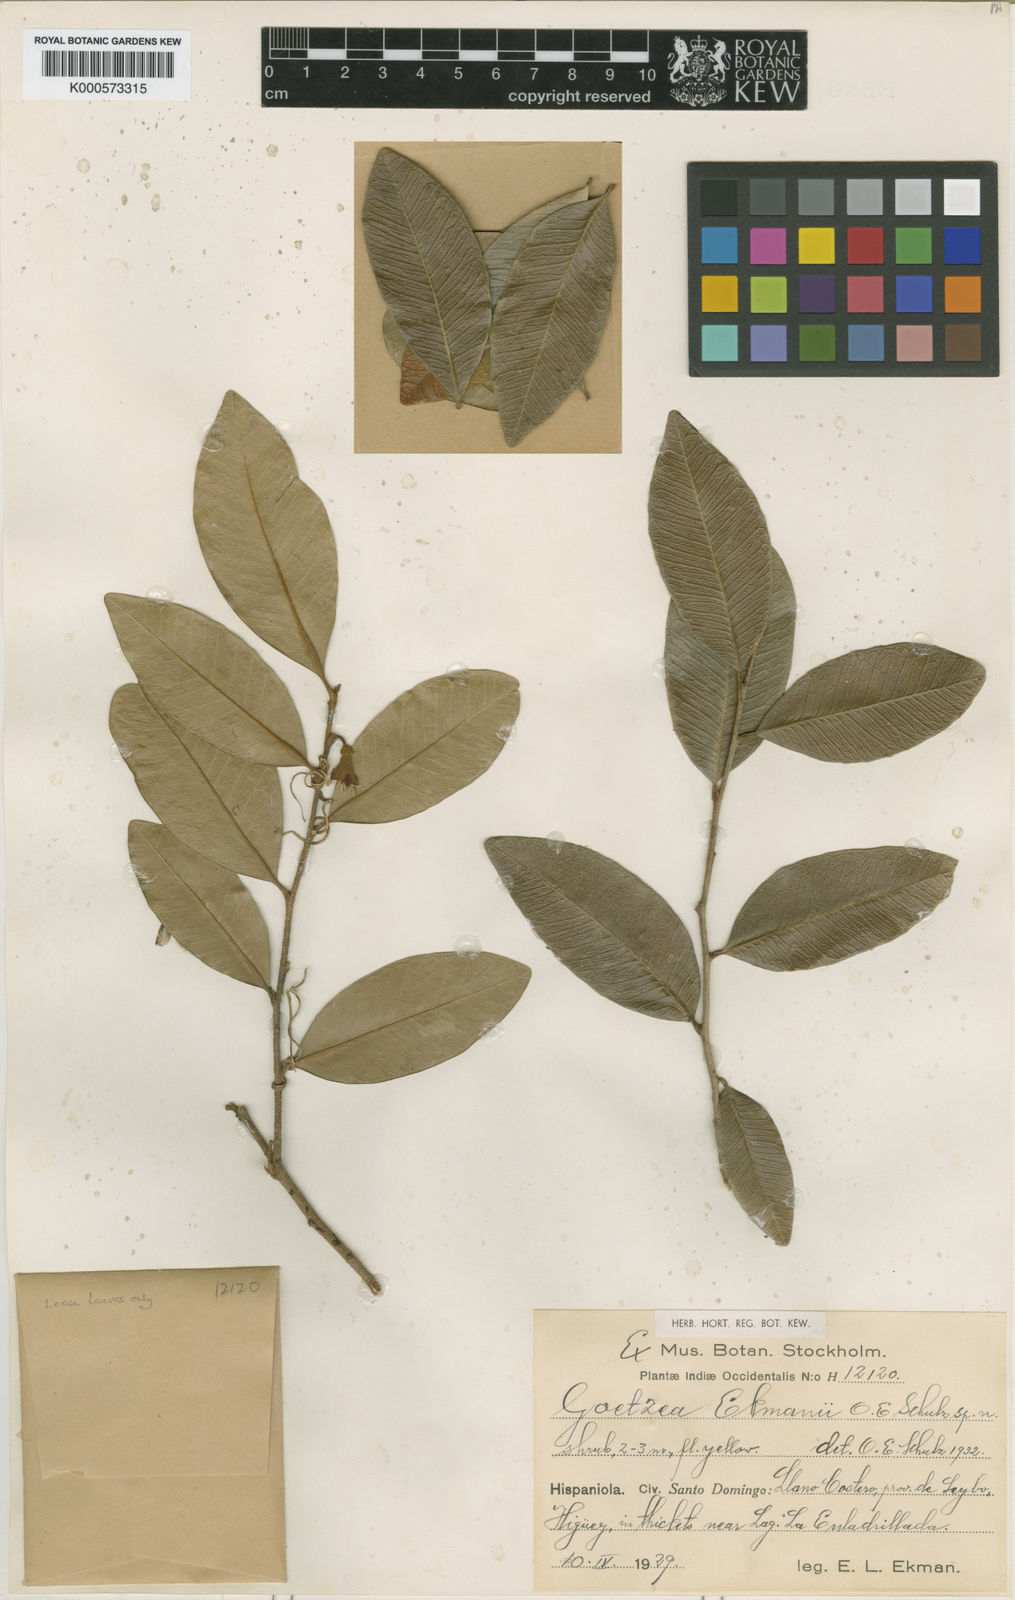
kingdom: Plantae
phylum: Tracheophyta
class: Magnoliopsida
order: Solanales
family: Solanaceae
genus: Goetzea
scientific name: Goetzea ekmanii
